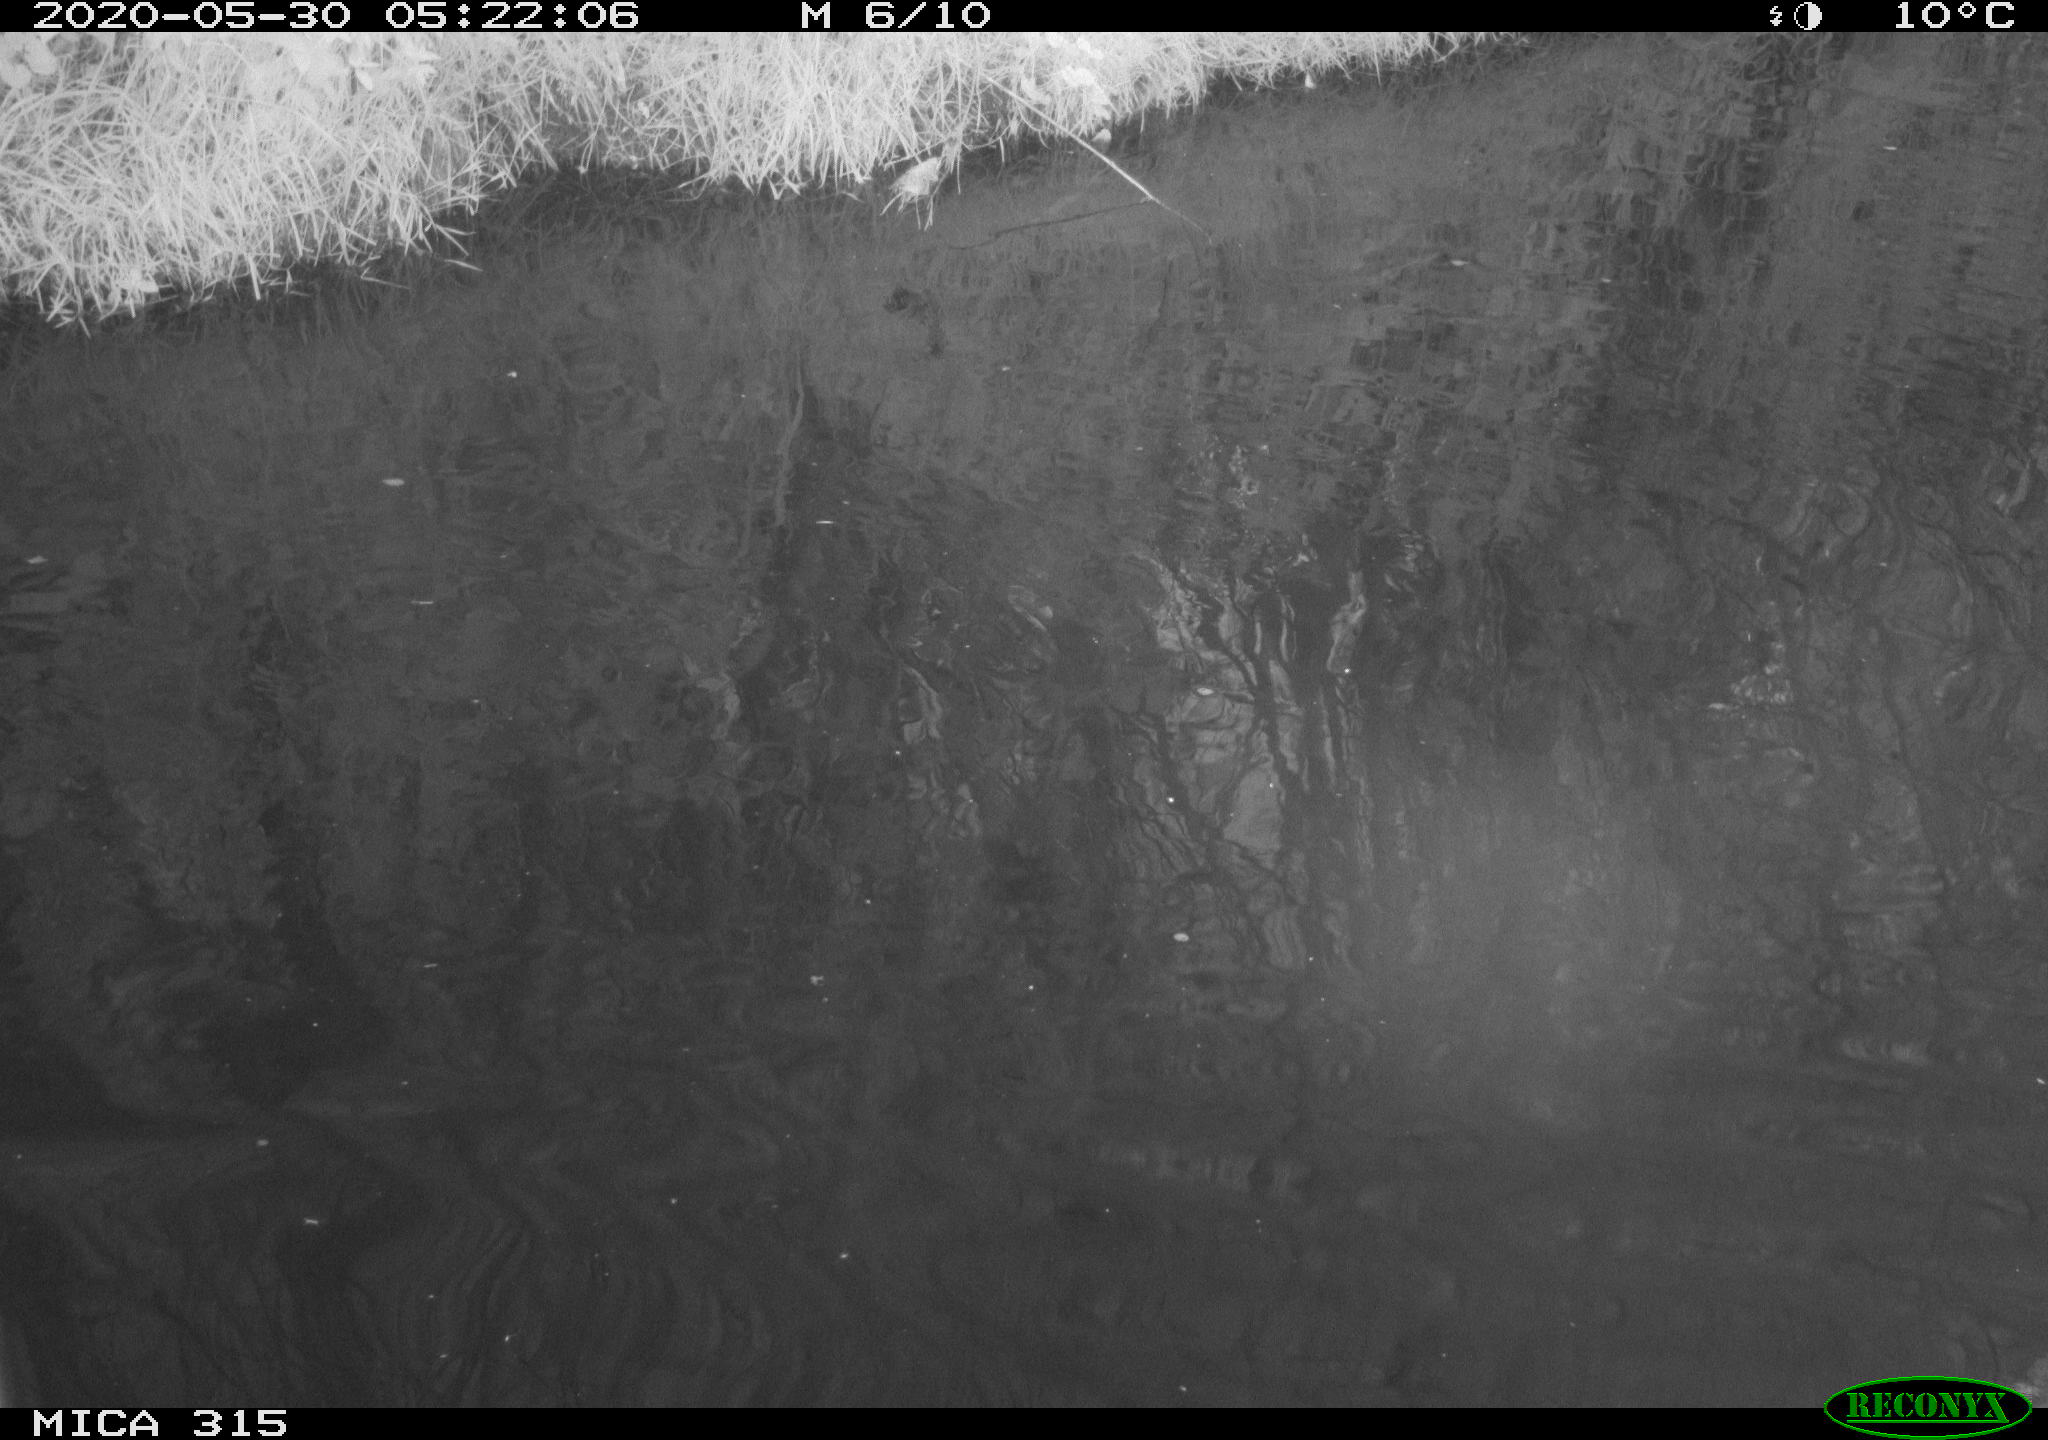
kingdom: Animalia
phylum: Chordata
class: Aves
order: Anseriformes
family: Anatidae
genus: Anas
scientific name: Anas platyrhynchos
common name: Mallard
